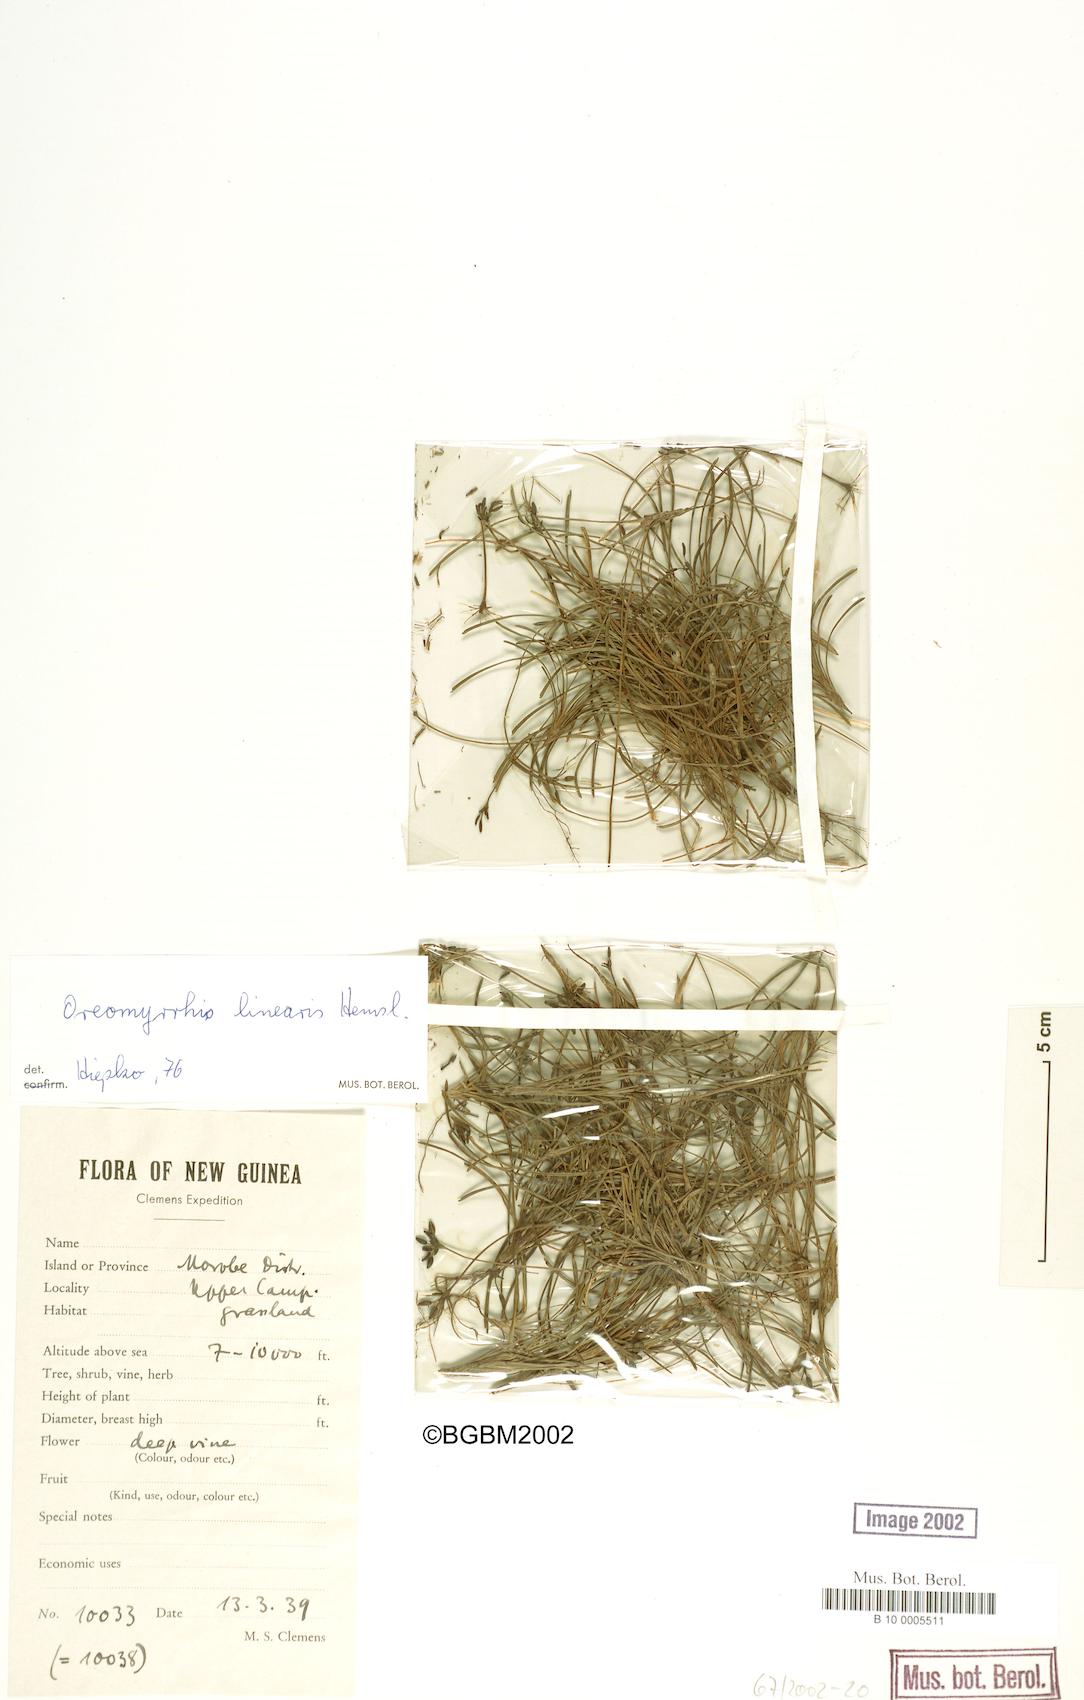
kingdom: Plantae
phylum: Tracheophyta
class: Magnoliopsida
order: Apiales
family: Apiaceae
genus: Chaerophyllum
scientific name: Chaerophyllum lineare
